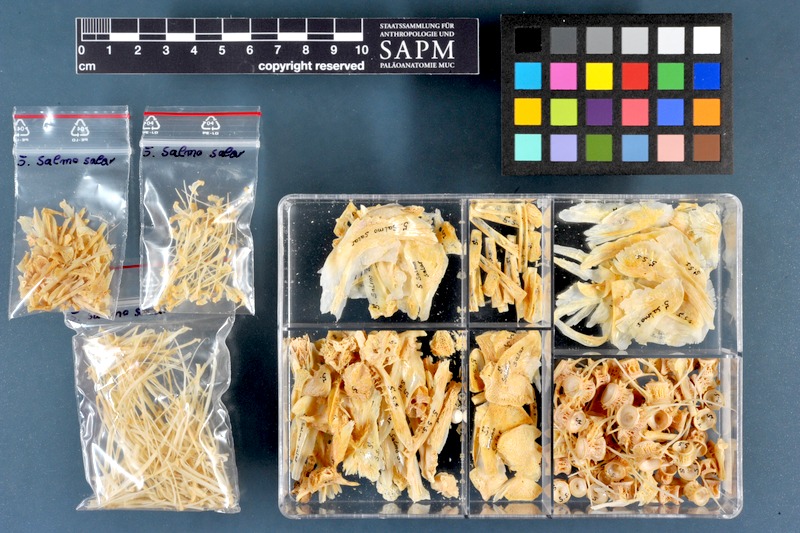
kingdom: Animalia
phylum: Chordata
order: Salmoniformes
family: Salmonidae
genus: Salmo
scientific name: Salmo salar
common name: Atlantic salmon
